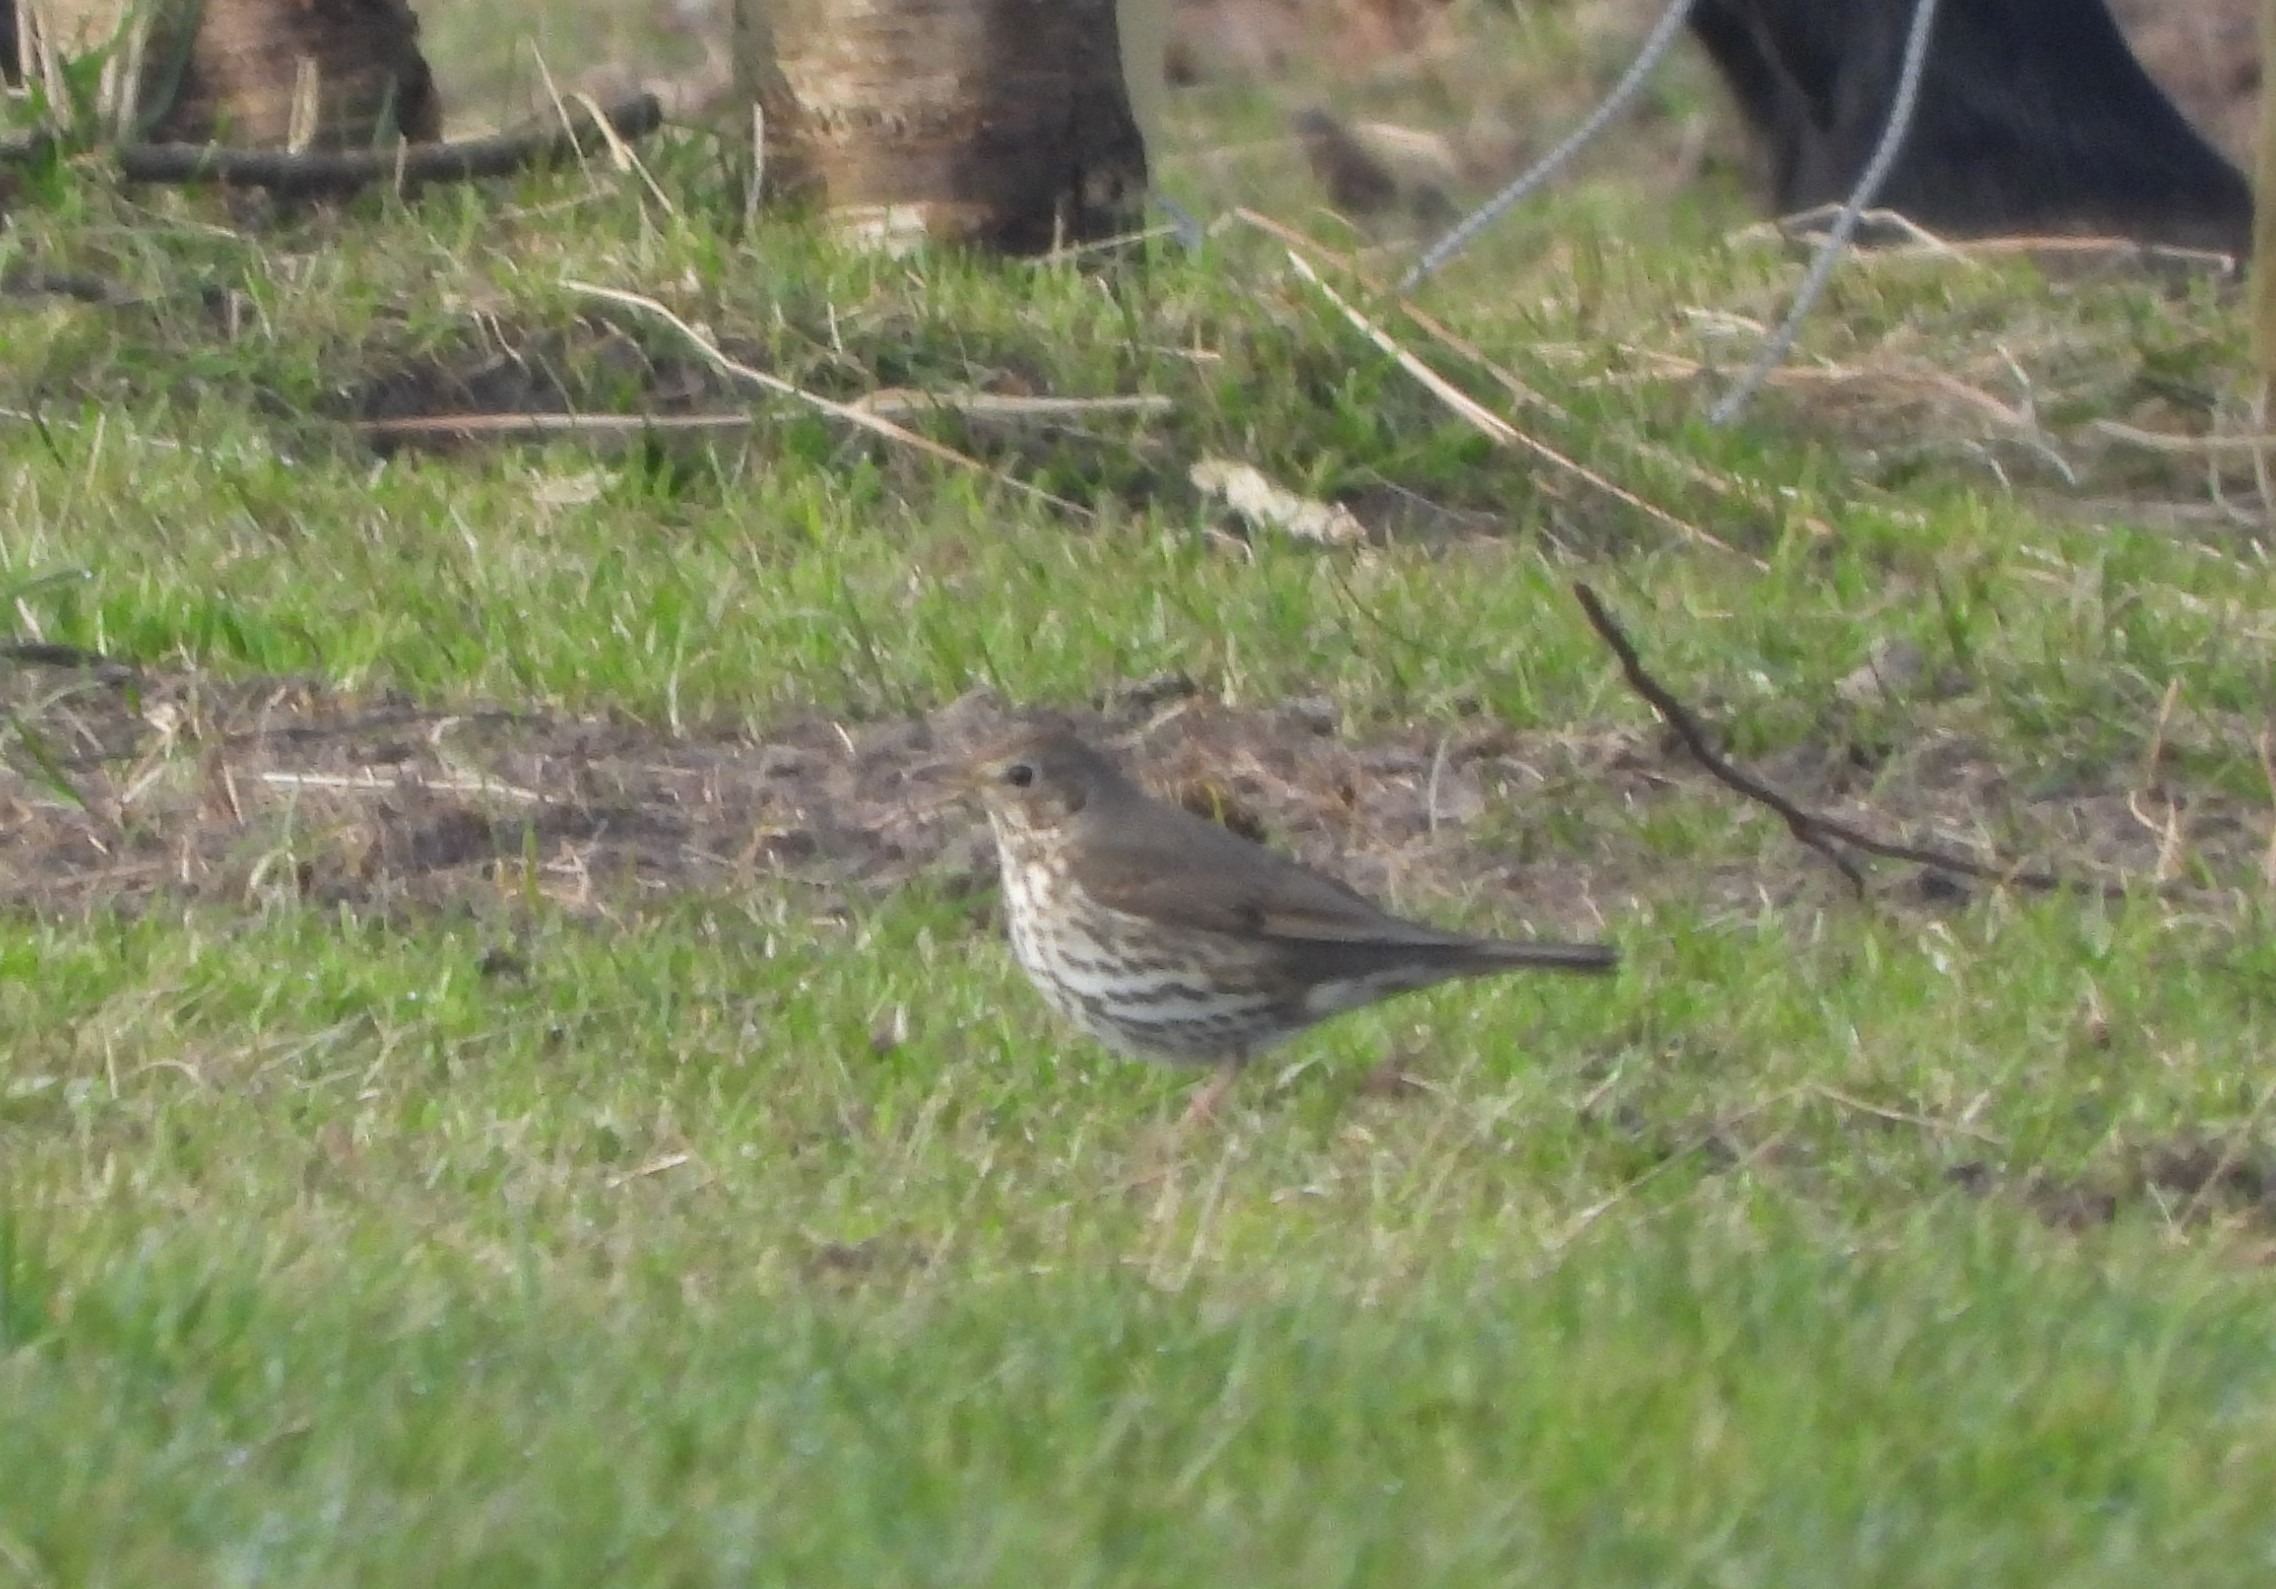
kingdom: Animalia
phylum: Chordata
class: Aves
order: Passeriformes
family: Turdidae
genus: Turdus
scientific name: Turdus philomelos
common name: Sangdrossel
